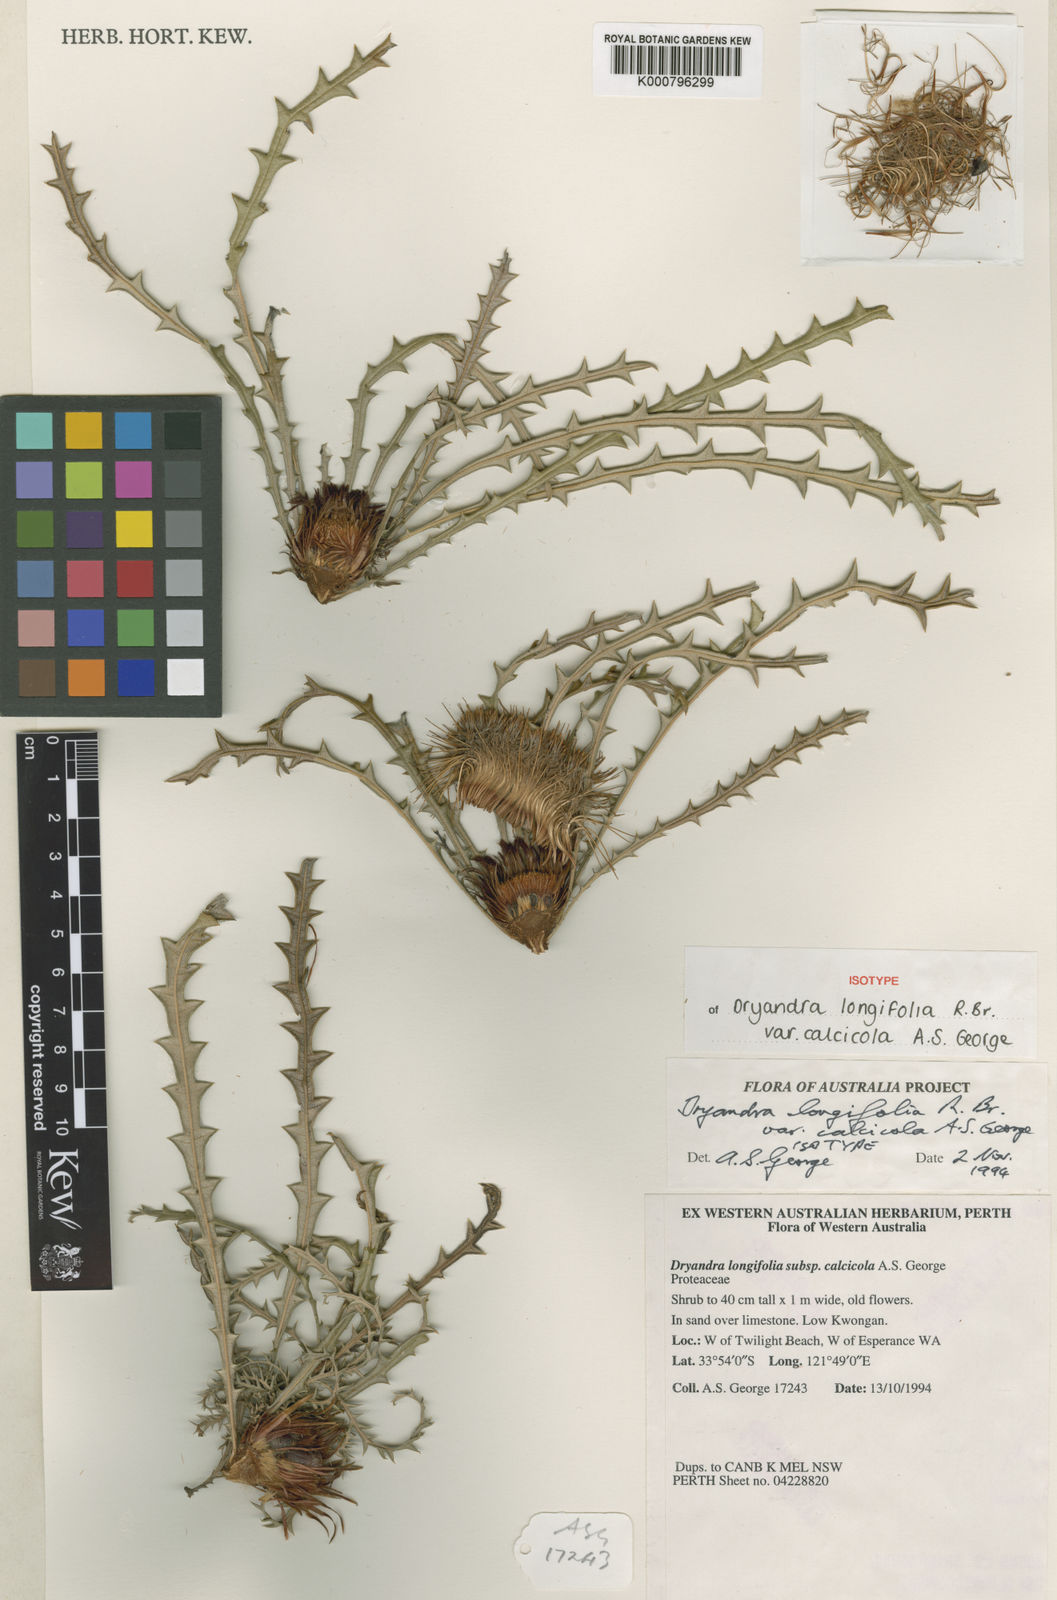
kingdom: Plantae
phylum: Tracheophyta
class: Magnoliopsida
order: Proteales
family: Proteaceae
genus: Banksia
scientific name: Banksia prolata
